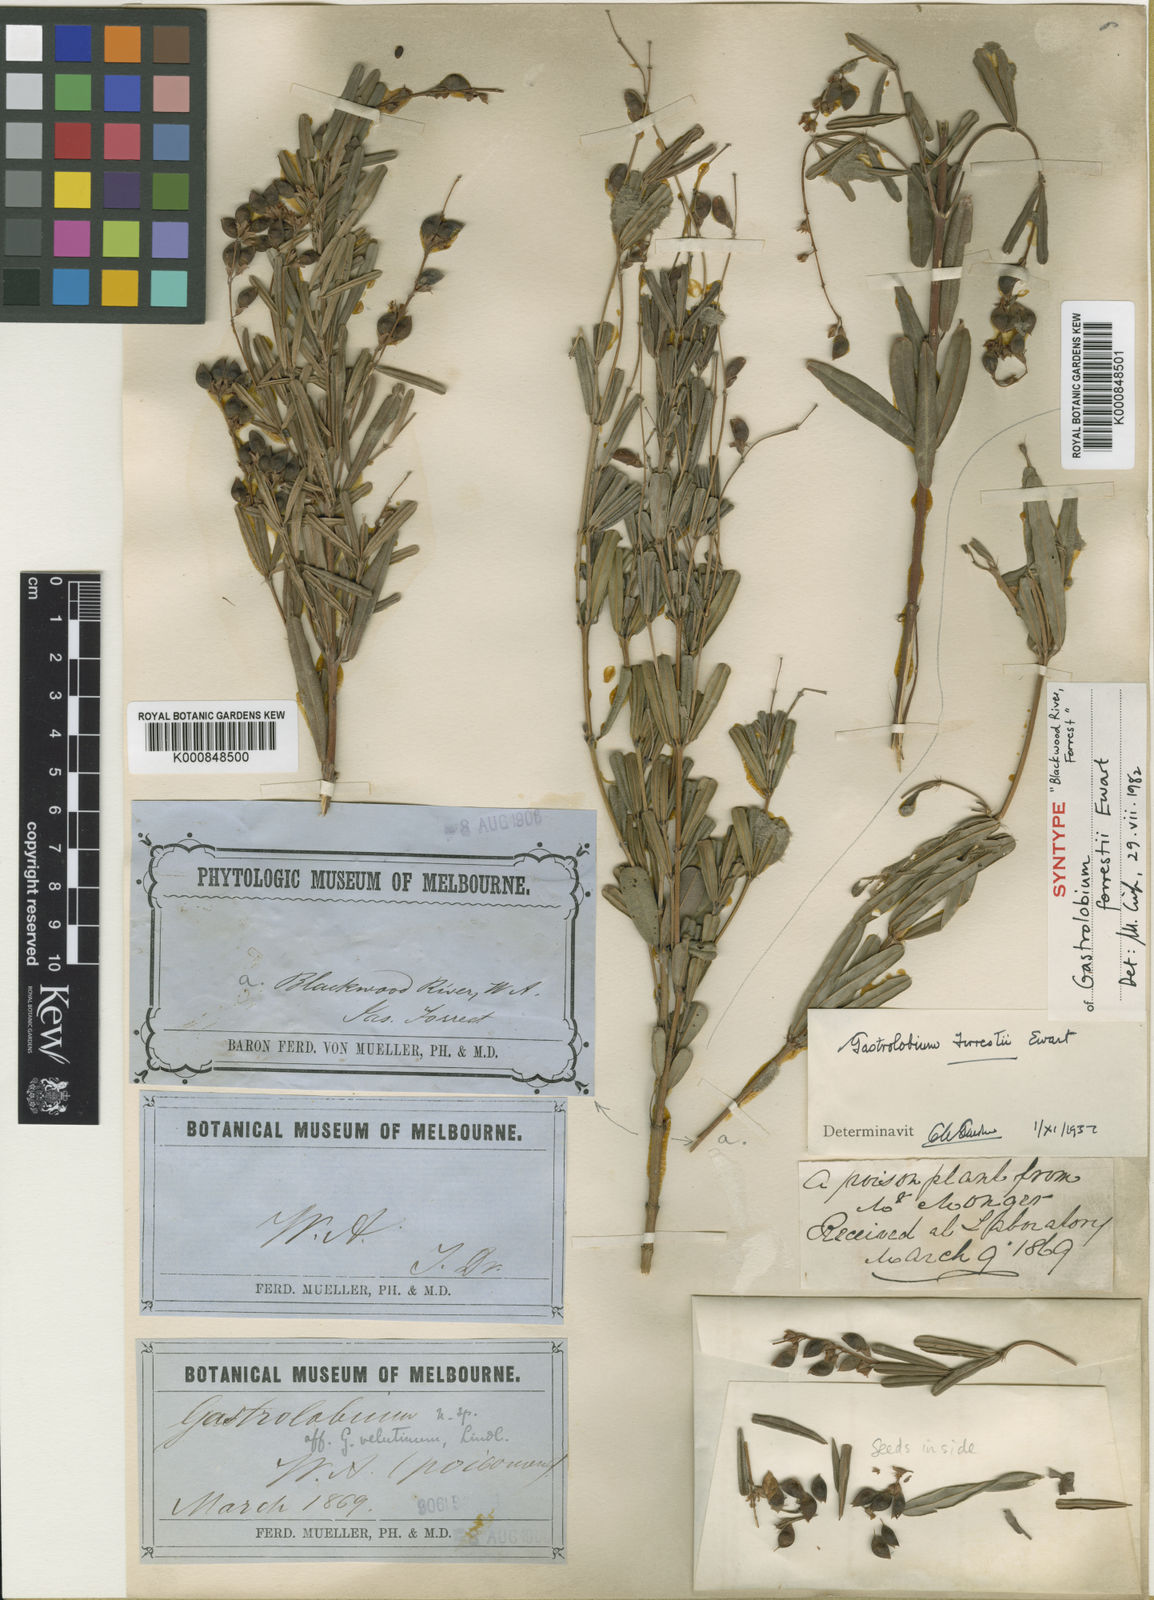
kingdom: Plantae
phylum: Tracheophyta
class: Magnoliopsida
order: Fabales
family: Fabaceae
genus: Gastrolobium
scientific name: Gastrolobium cuneatum
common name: River poisonbush
